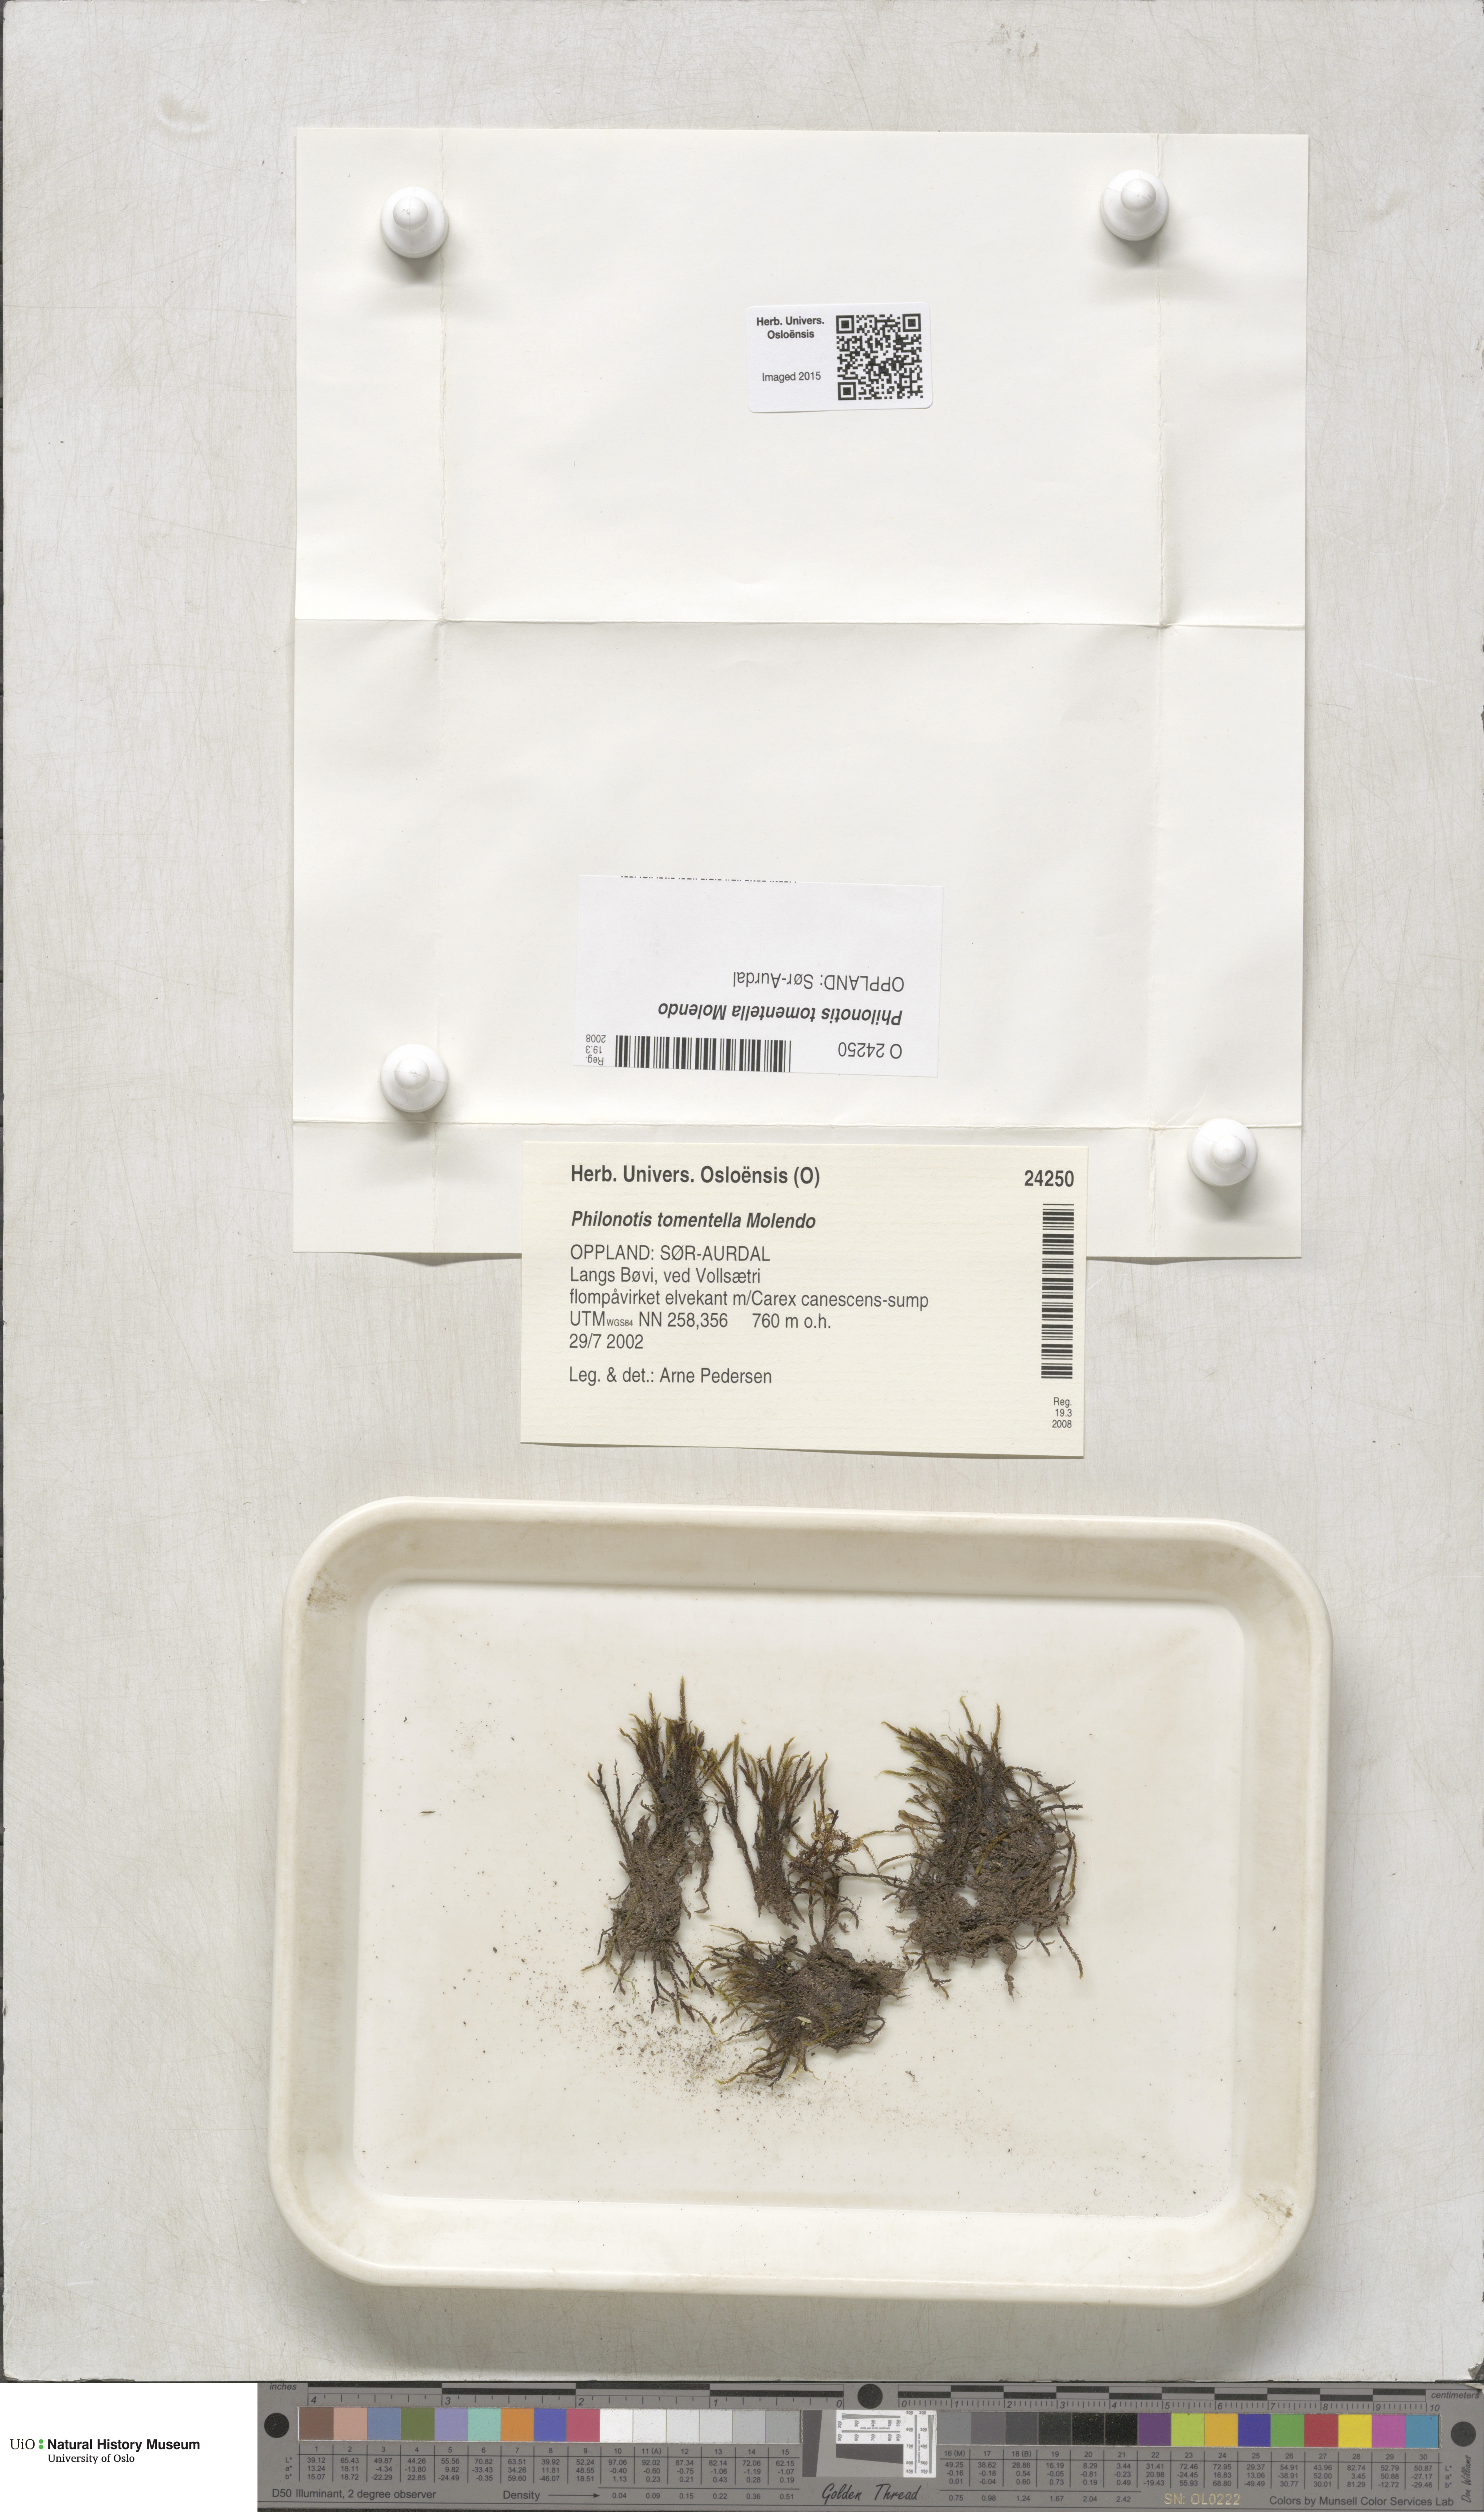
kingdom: Plantae
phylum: Bryophyta
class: Bryopsida
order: Bartramiales
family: Bartramiaceae
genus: Philonotis
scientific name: Philonotis tomentella
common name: Woolly apple moss
